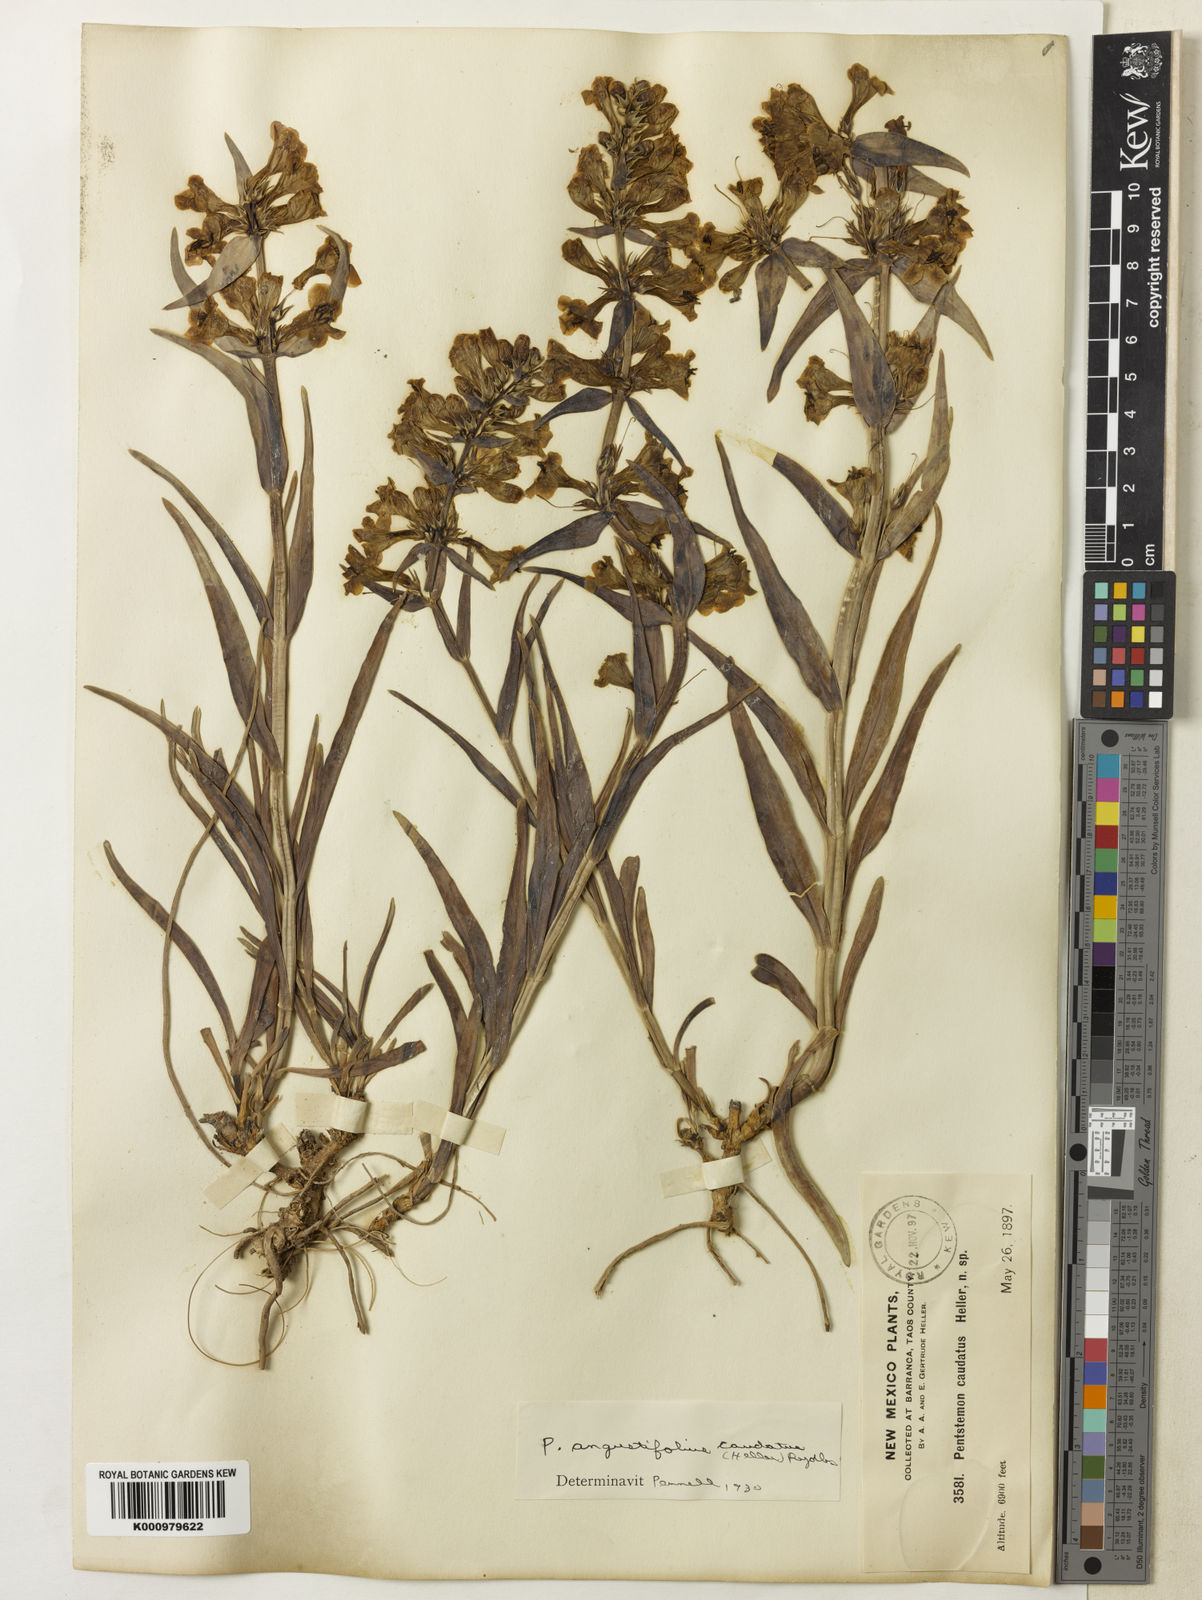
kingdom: Plantae
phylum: Tracheophyta
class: Magnoliopsida
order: Lamiales
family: Plantaginaceae
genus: Penstemon
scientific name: Penstemon angustifolius
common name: Narrow beardtongue
